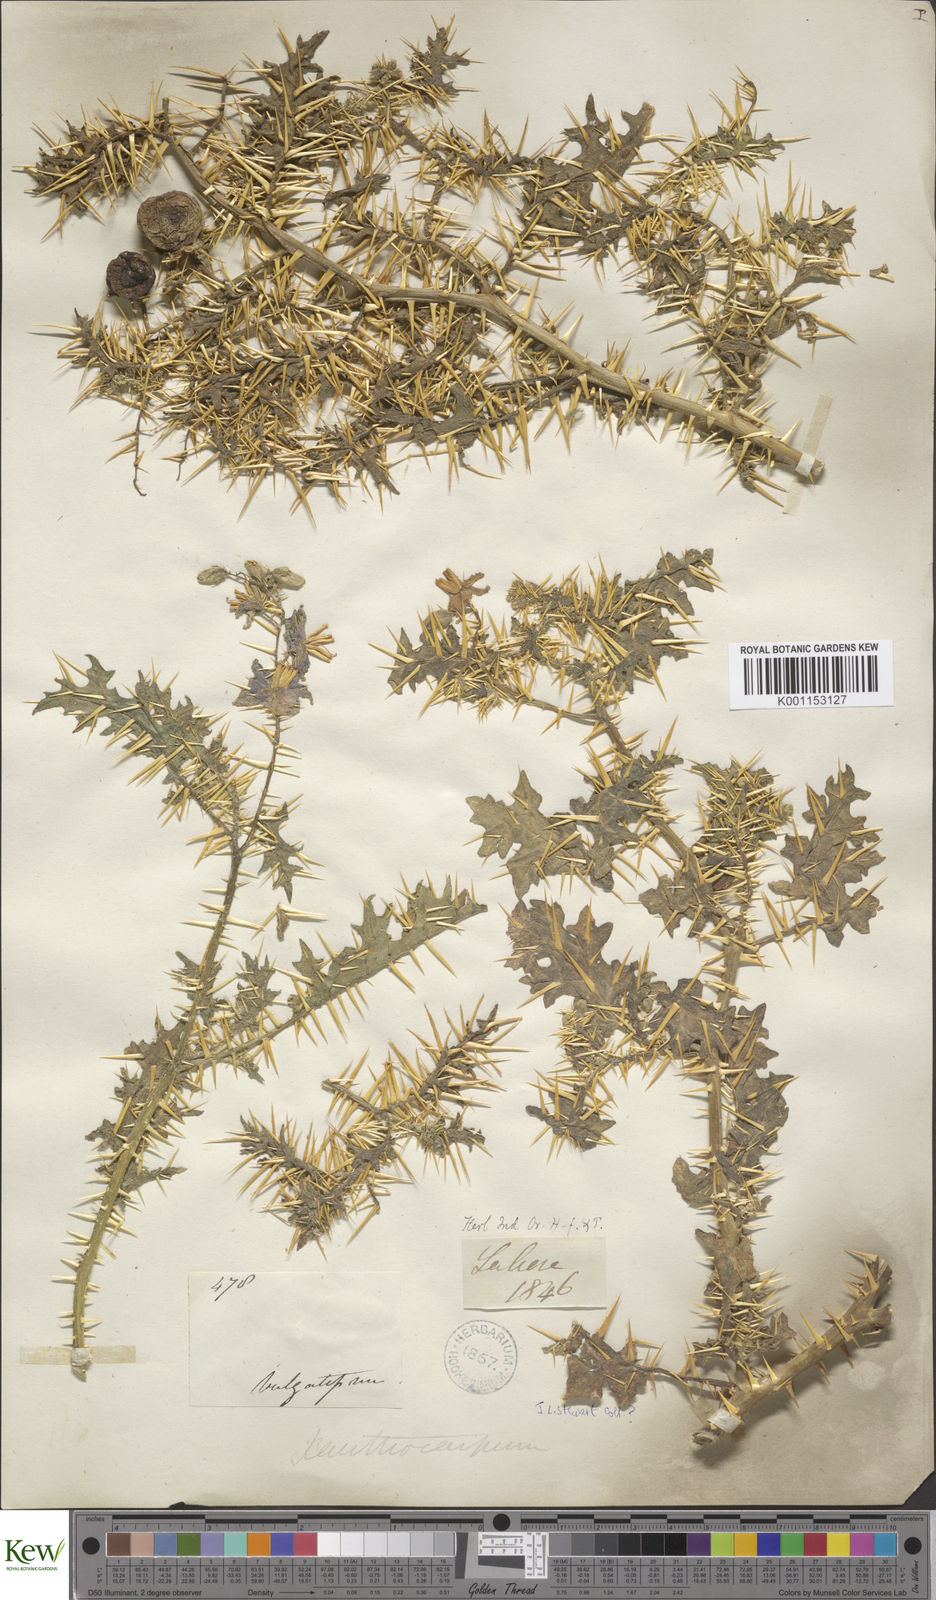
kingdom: Plantae
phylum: Tracheophyta
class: Magnoliopsida
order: Solanales
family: Solanaceae
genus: Solanum
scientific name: Solanum virginianum
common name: Surattense nightshade
